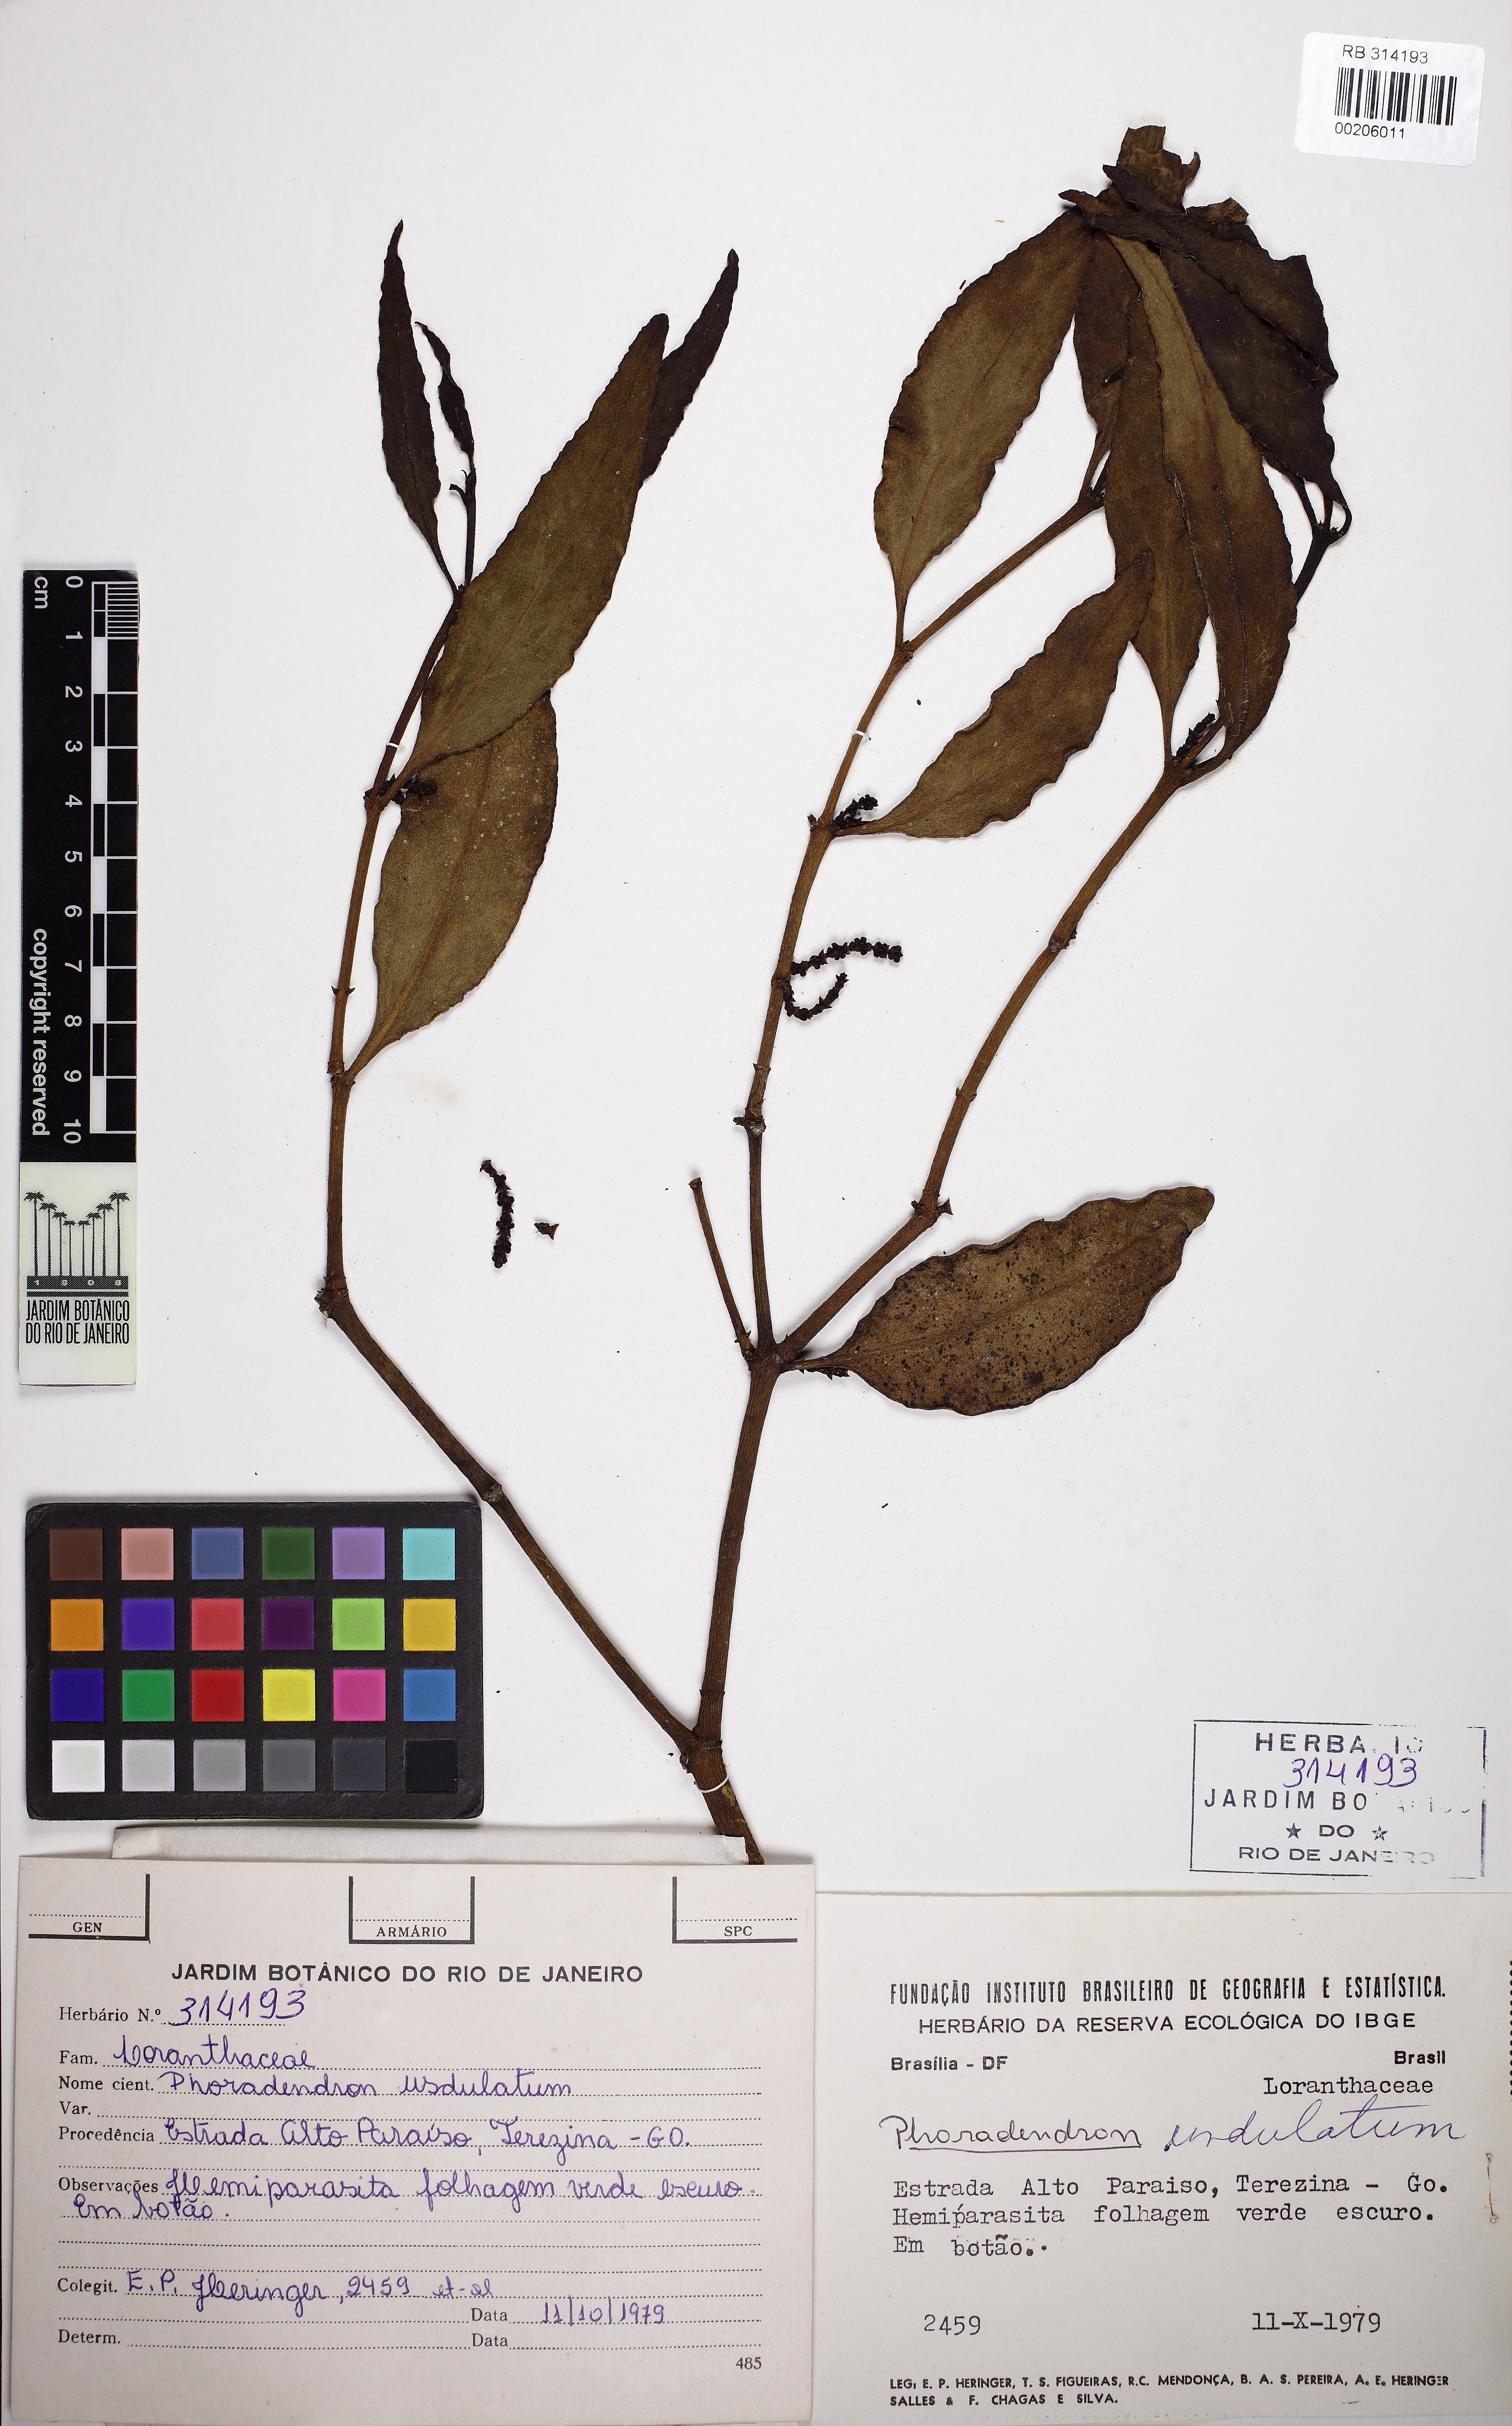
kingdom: Plantae
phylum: Tracheophyta
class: Magnoliopsida
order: Santalales
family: Viscaceae
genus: Phoradendron
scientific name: Phoradendron undulatum
